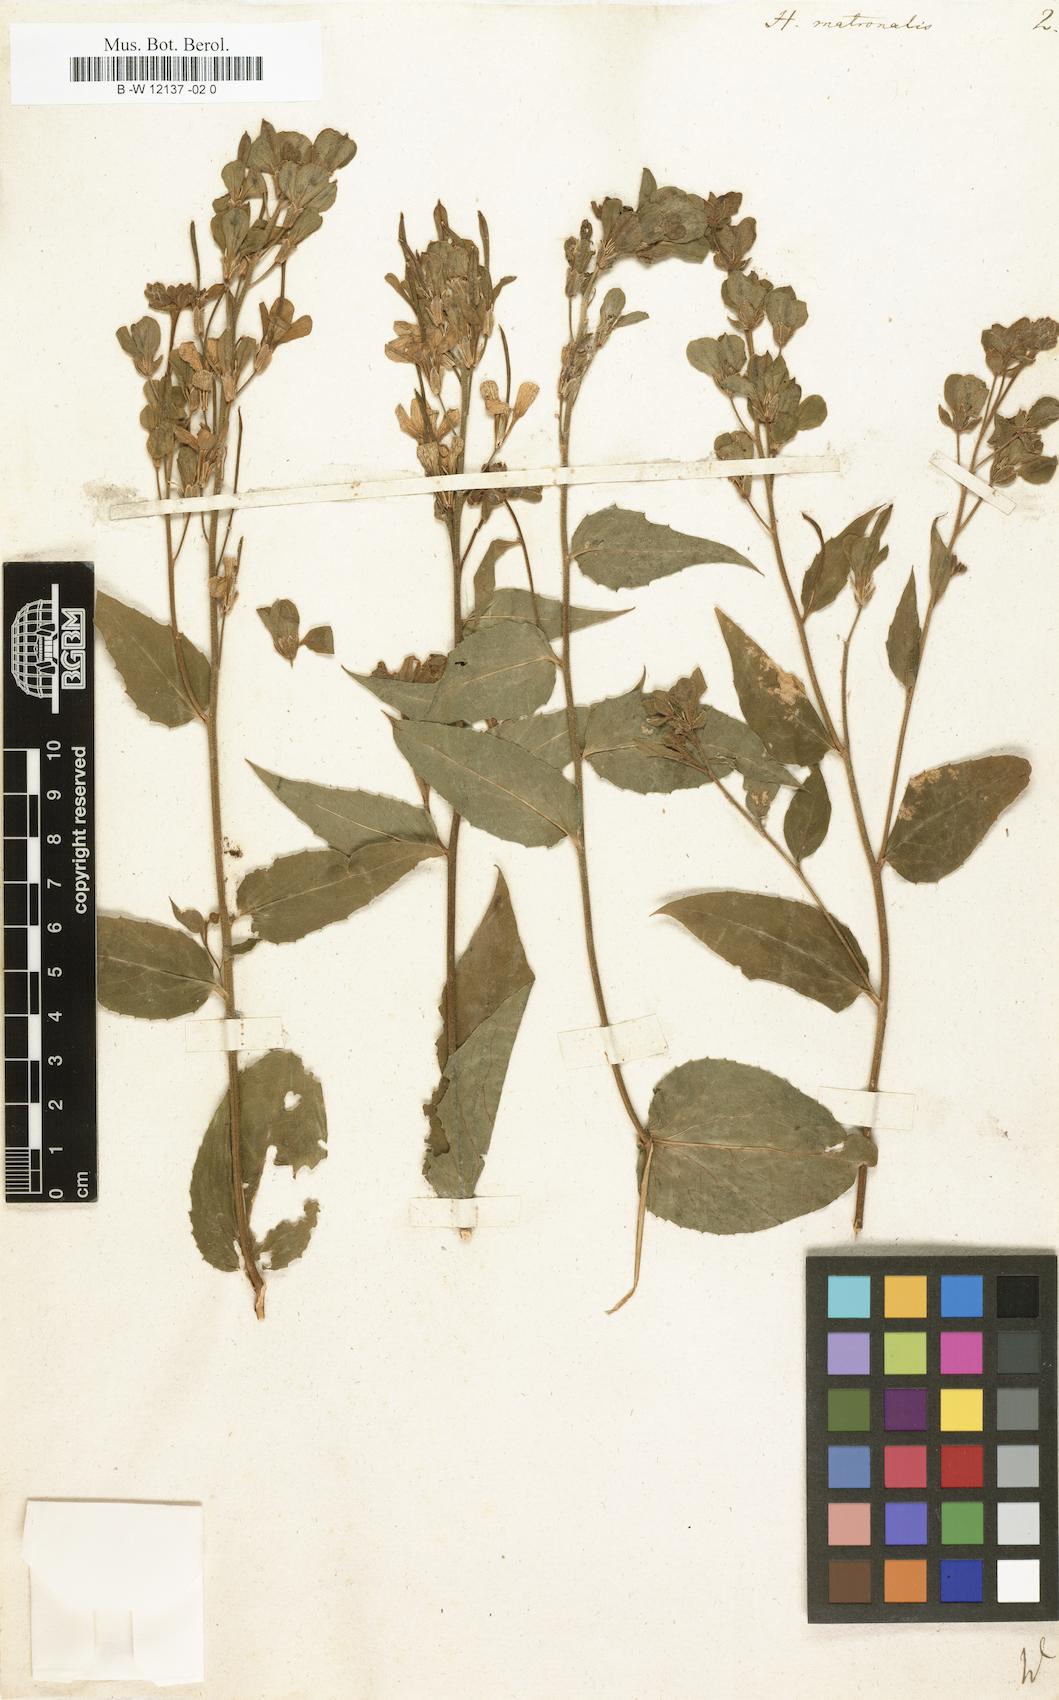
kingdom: Plantae
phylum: Tracheophyta
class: Magnoliopsida
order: Brassicales
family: Brassicaceae
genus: Hesperis
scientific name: Hesperis matronalis
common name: Dame's-violet
